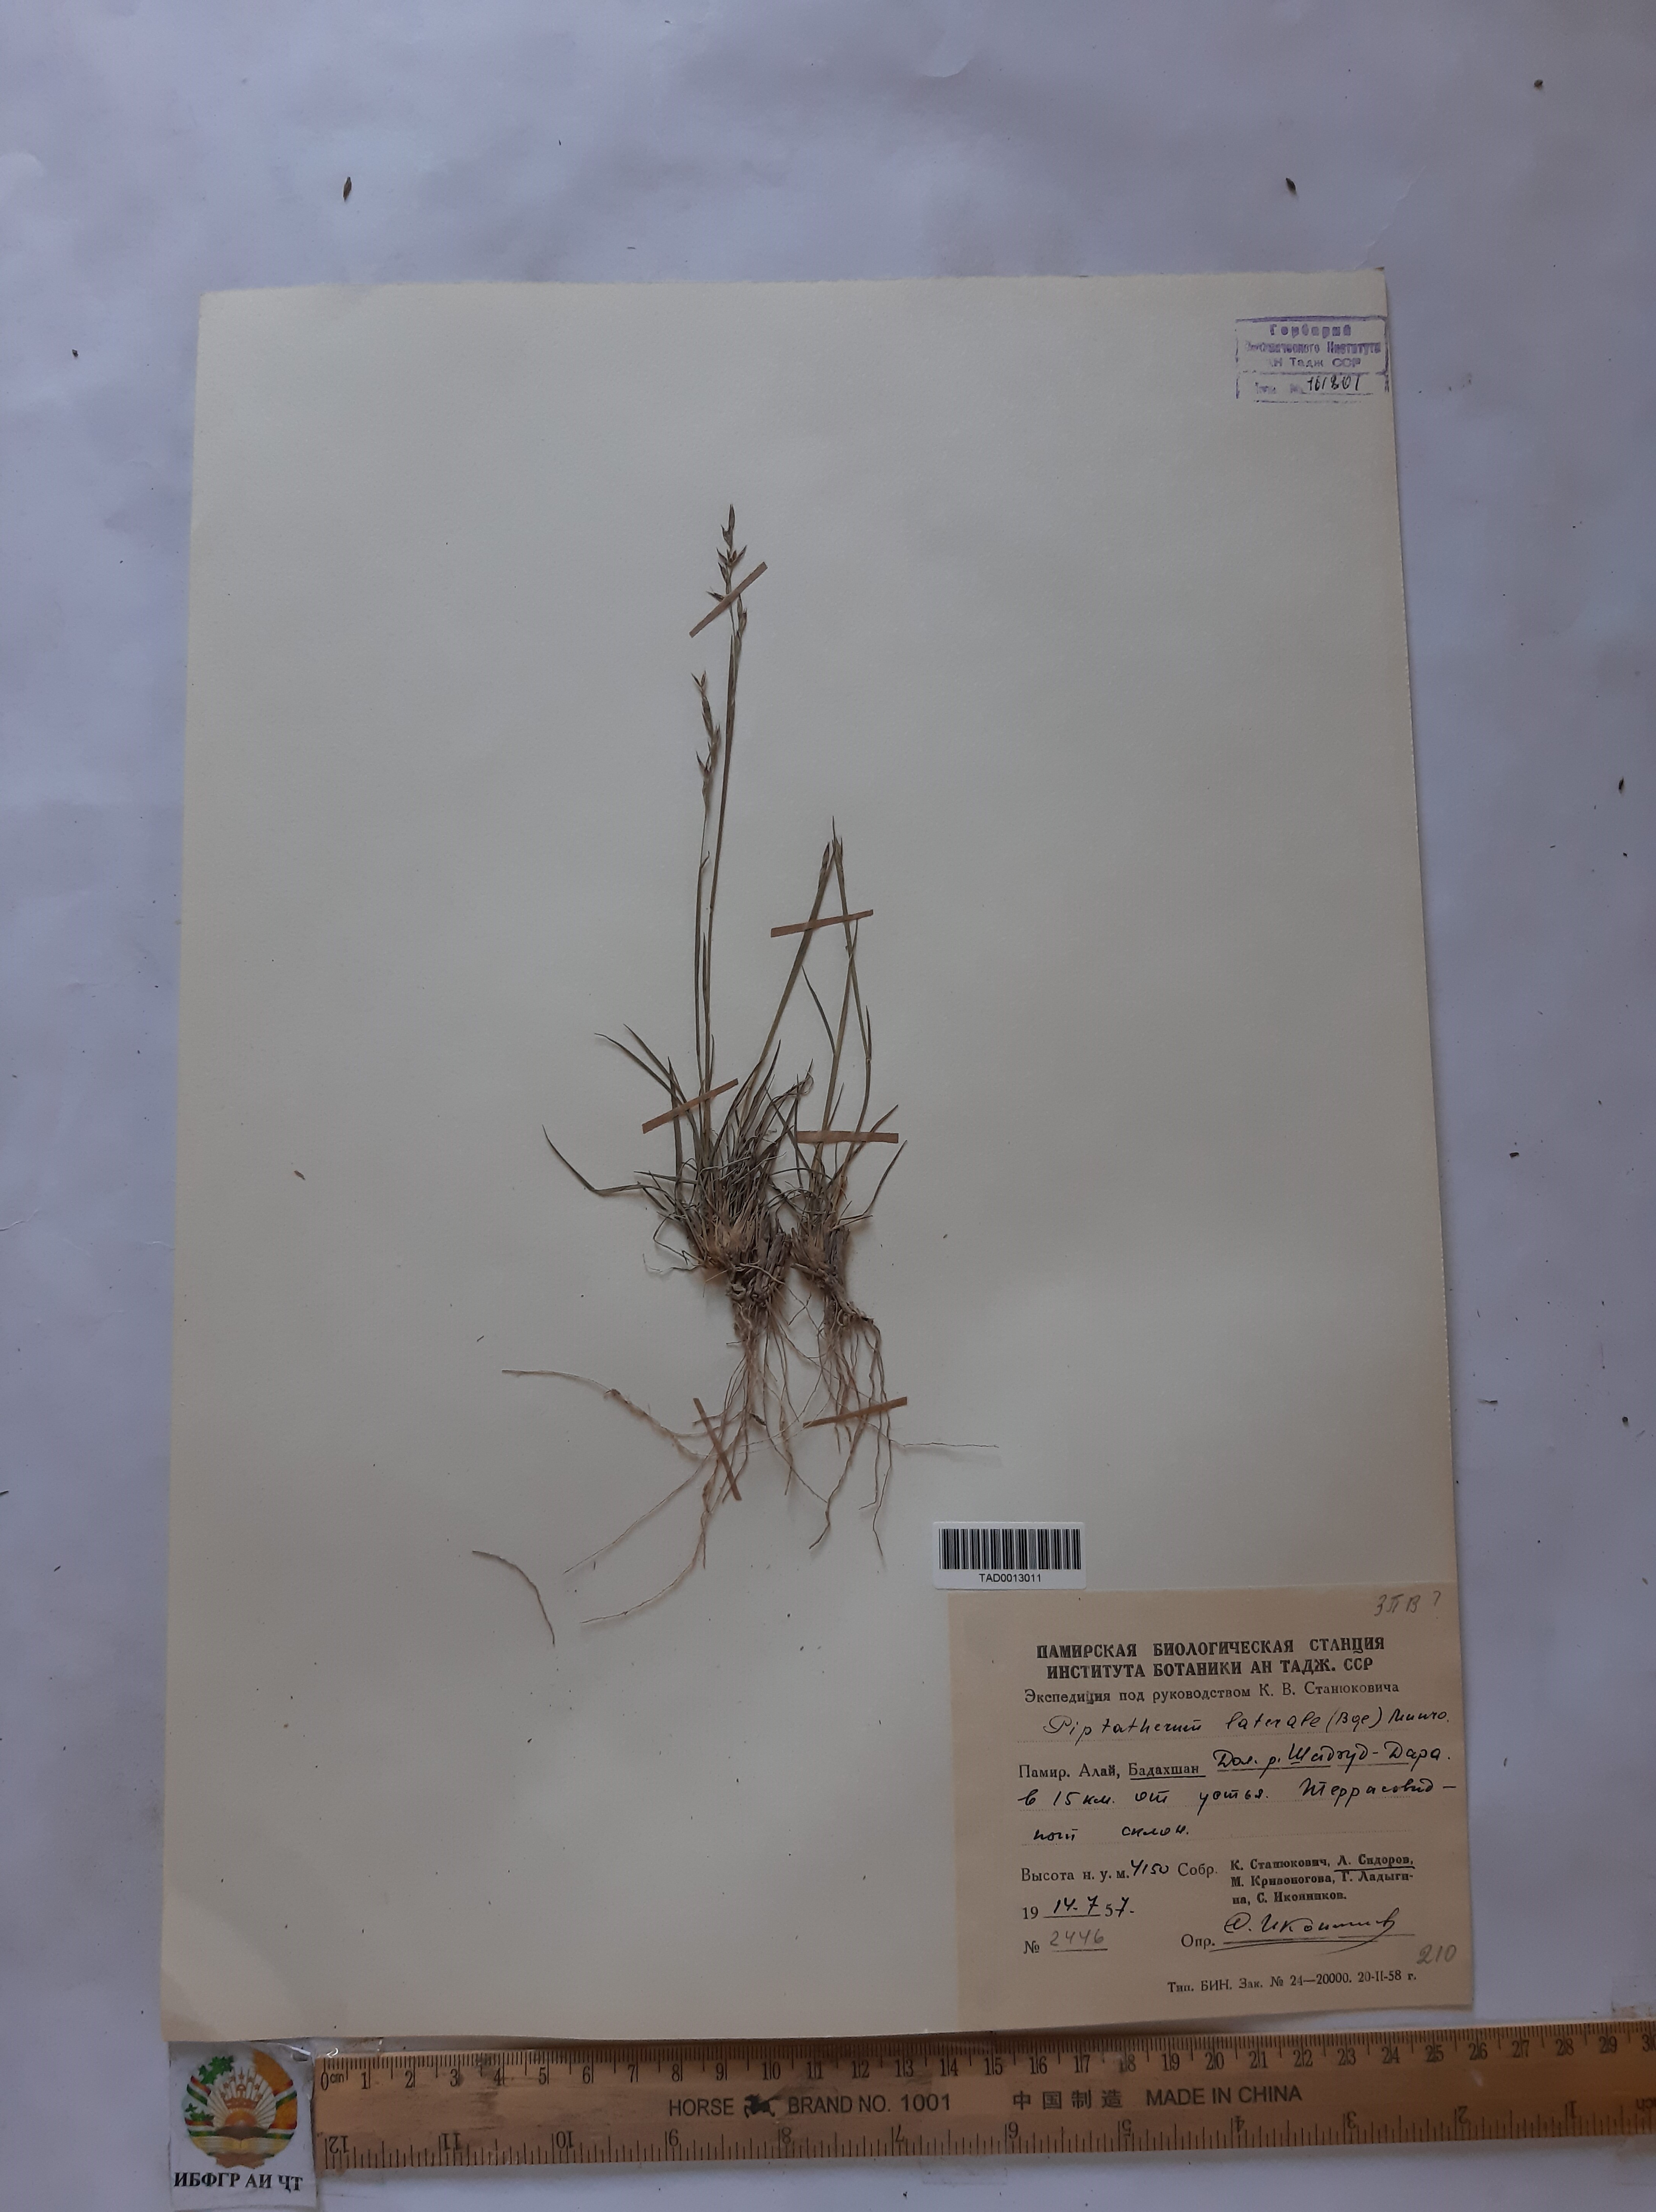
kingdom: Plantae
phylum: Tracheophyta
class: Liliopsida
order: Poales
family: Poaceae
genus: Piptatherum
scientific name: Piptatherum laterale
